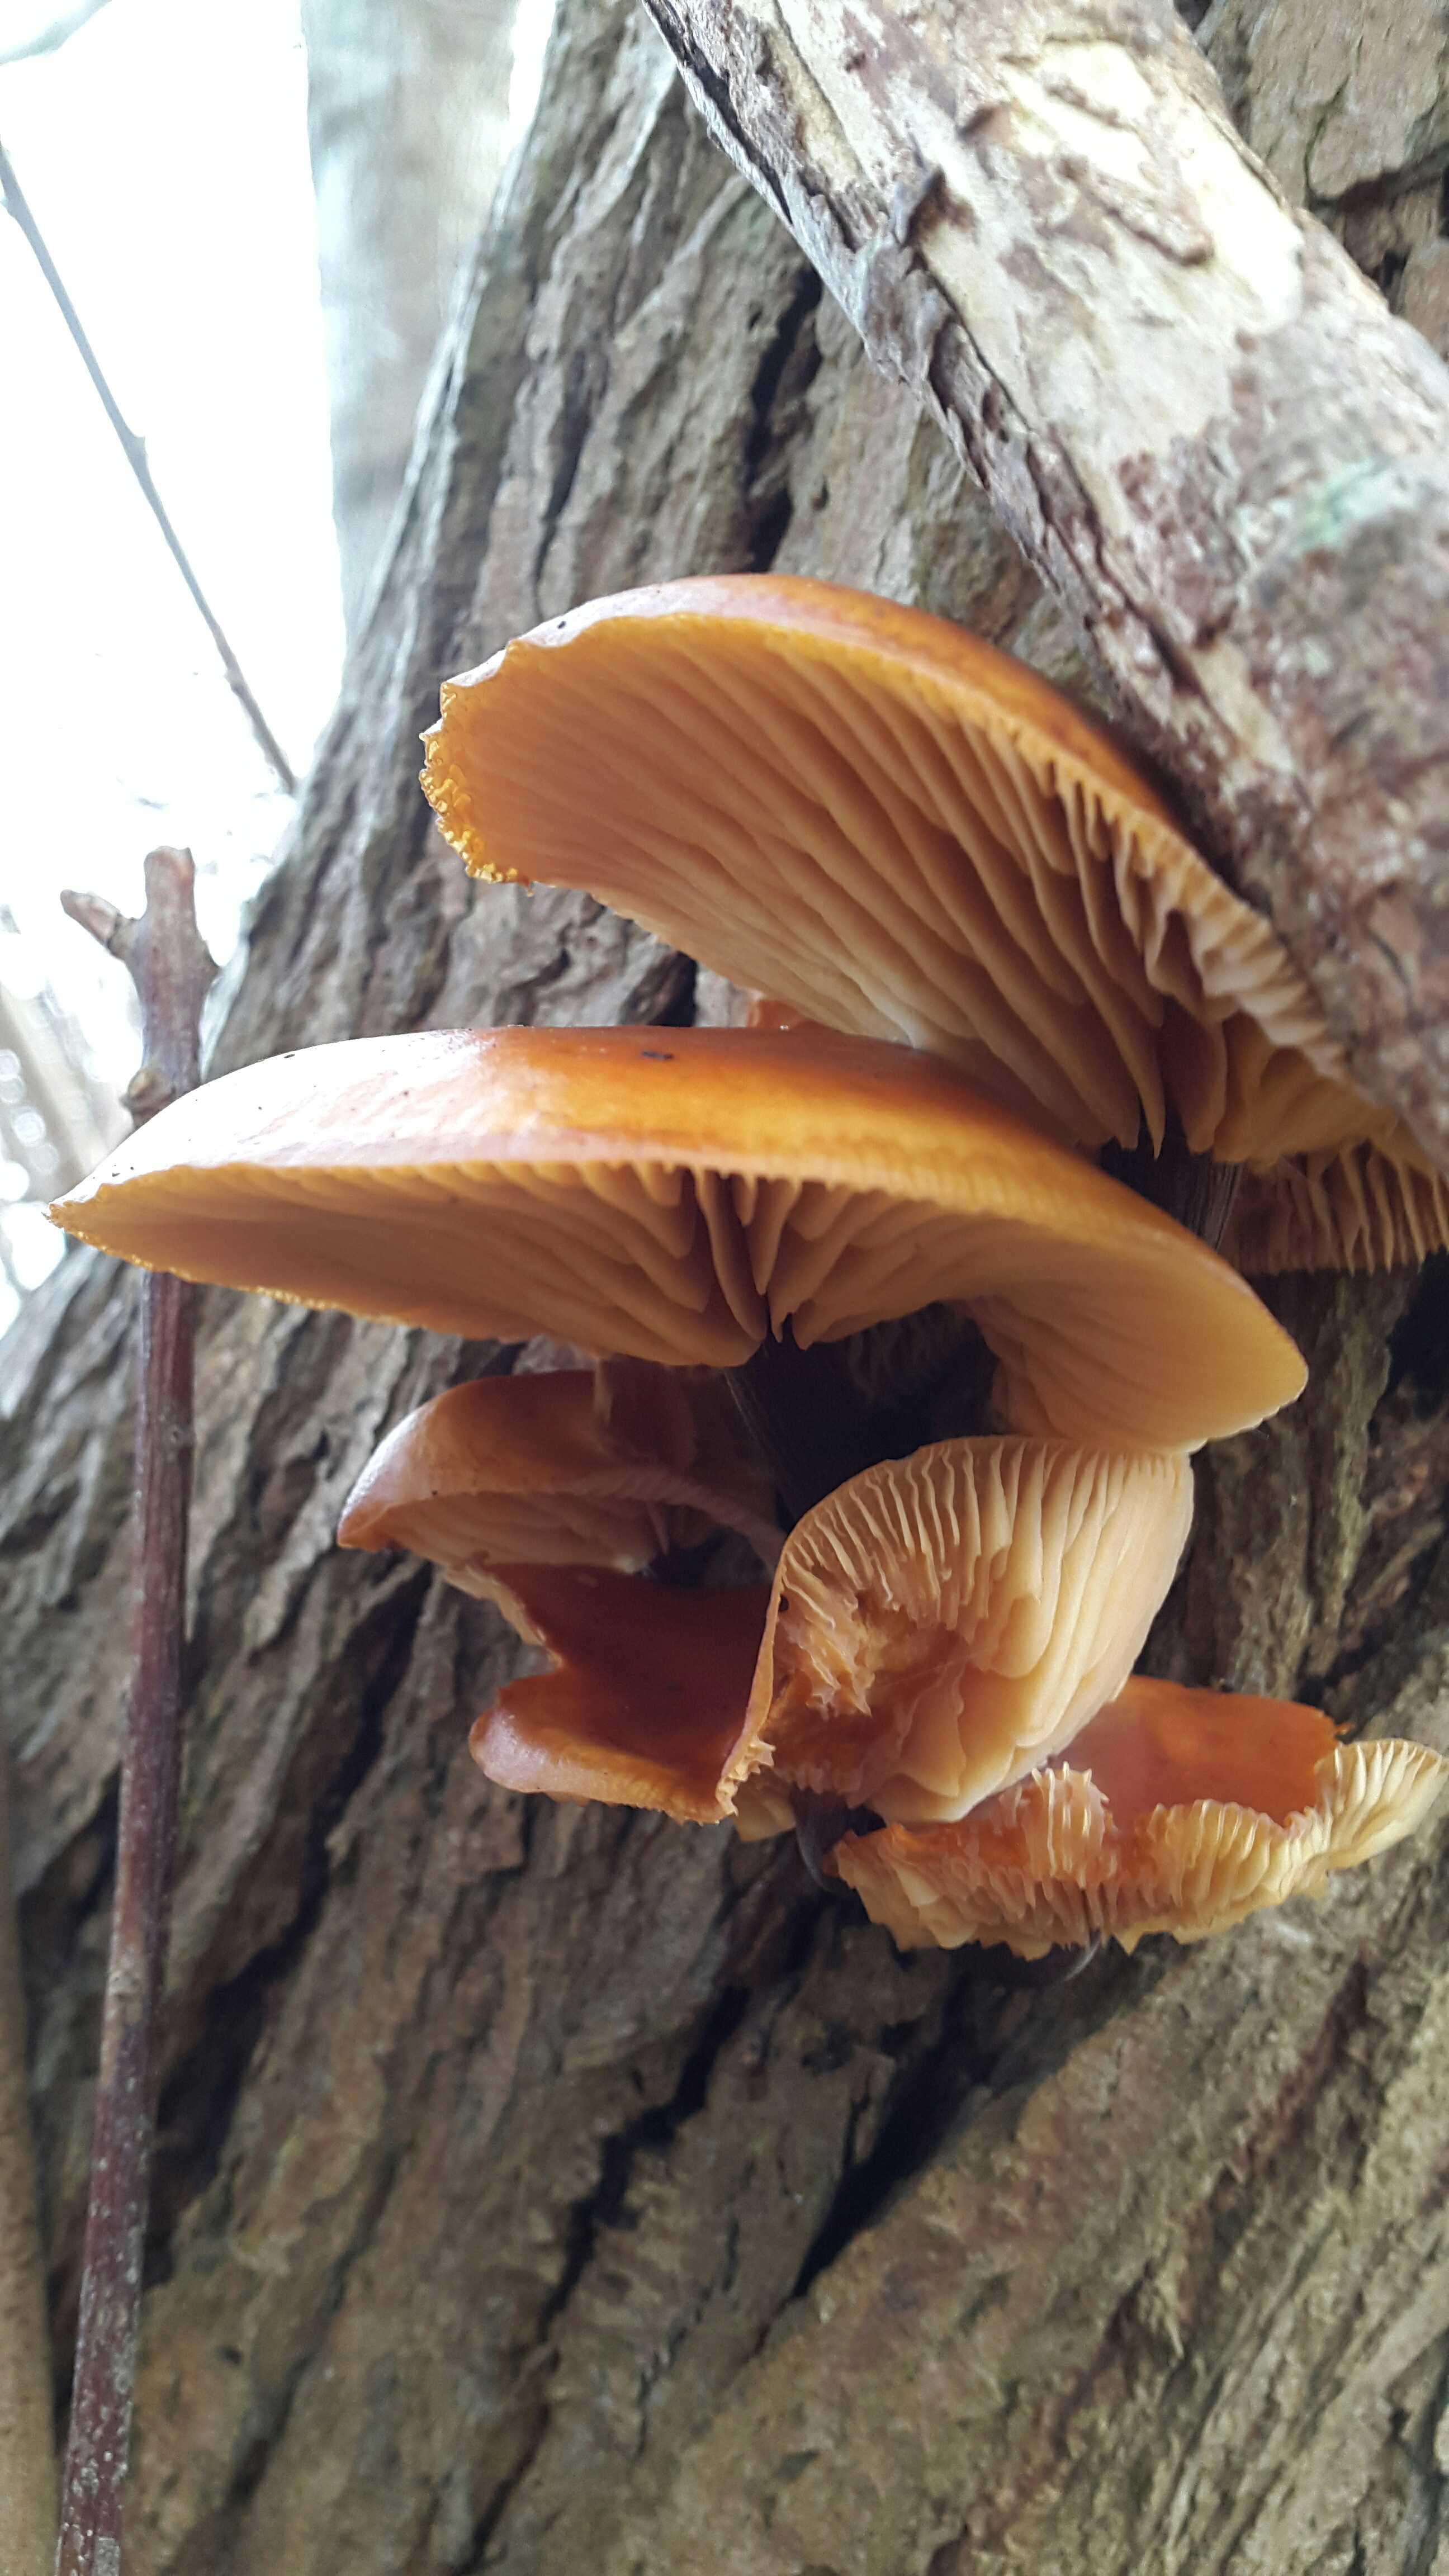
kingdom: Fungi
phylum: Basidiomycota
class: Agaricomycetes
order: Agaricales
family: Physalacriaceae
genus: Flammulina
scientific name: Flammulina
